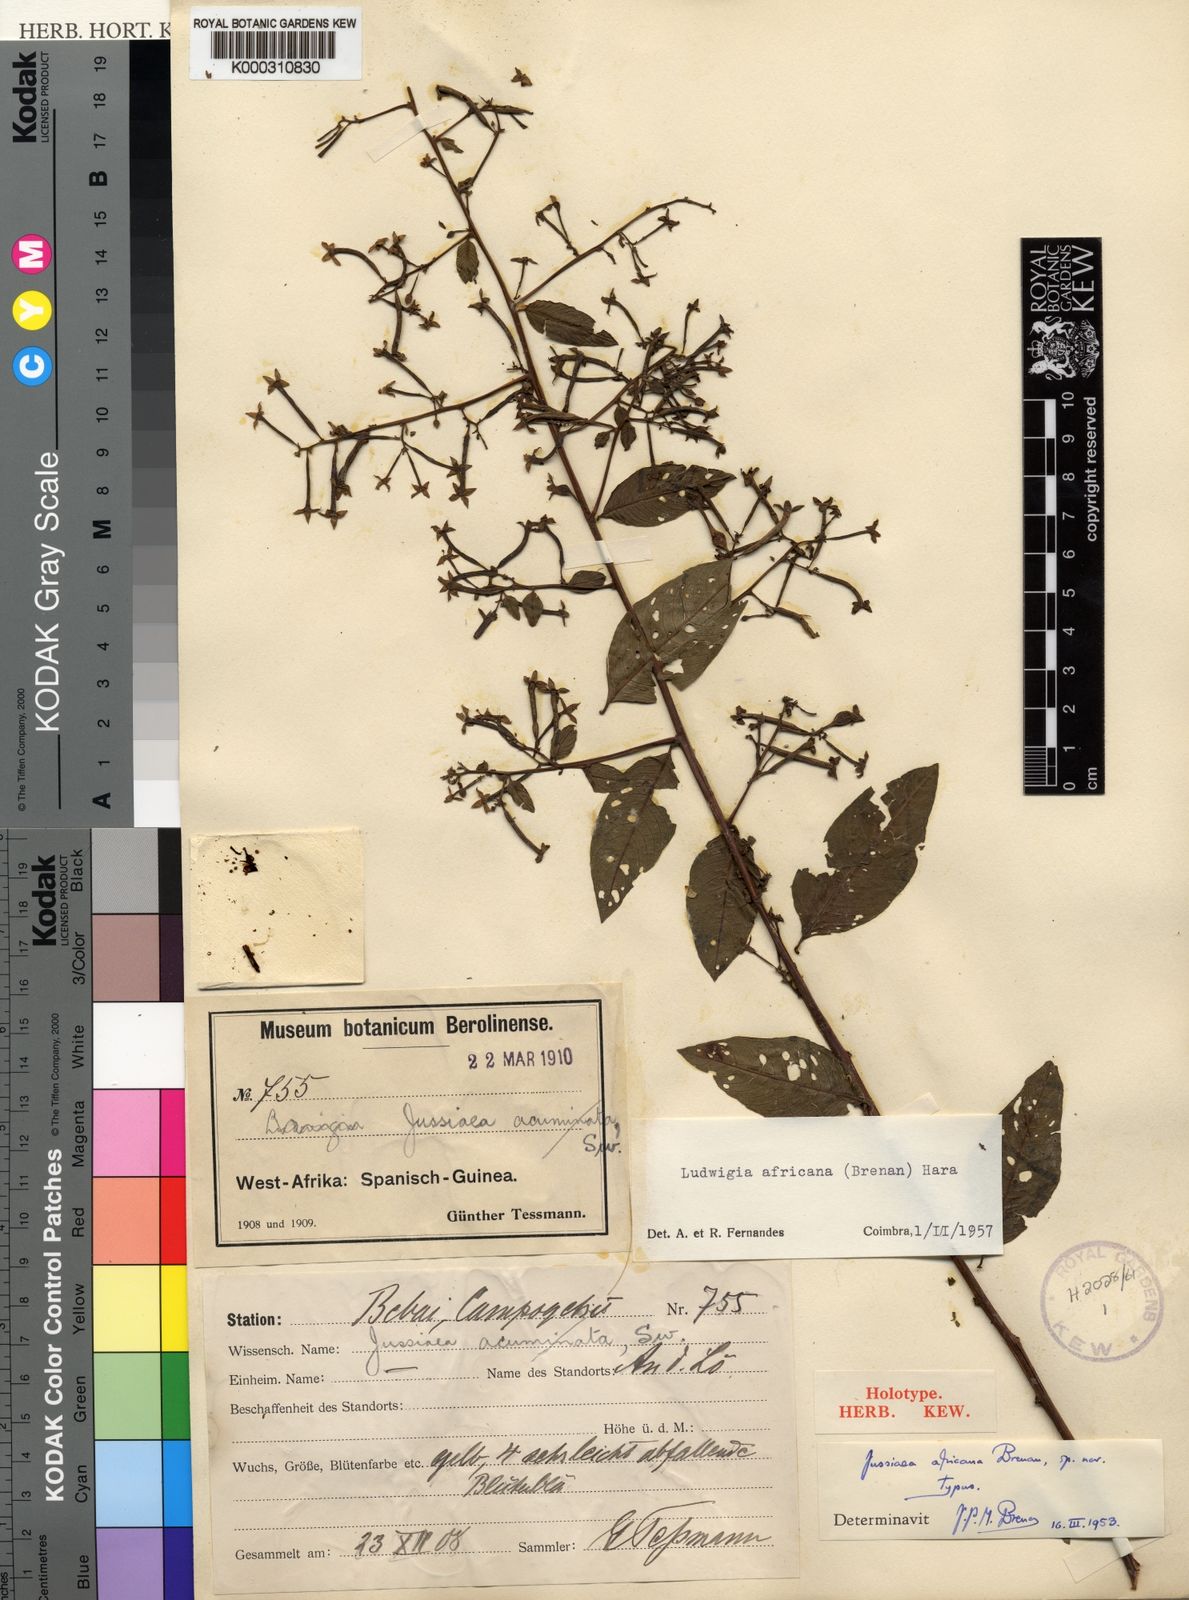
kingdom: Plantae
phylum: Tracheophyta
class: Magnoliopsida
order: Myrtales
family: Onagraceae
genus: Ludwigia
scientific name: Ludwigia africana
